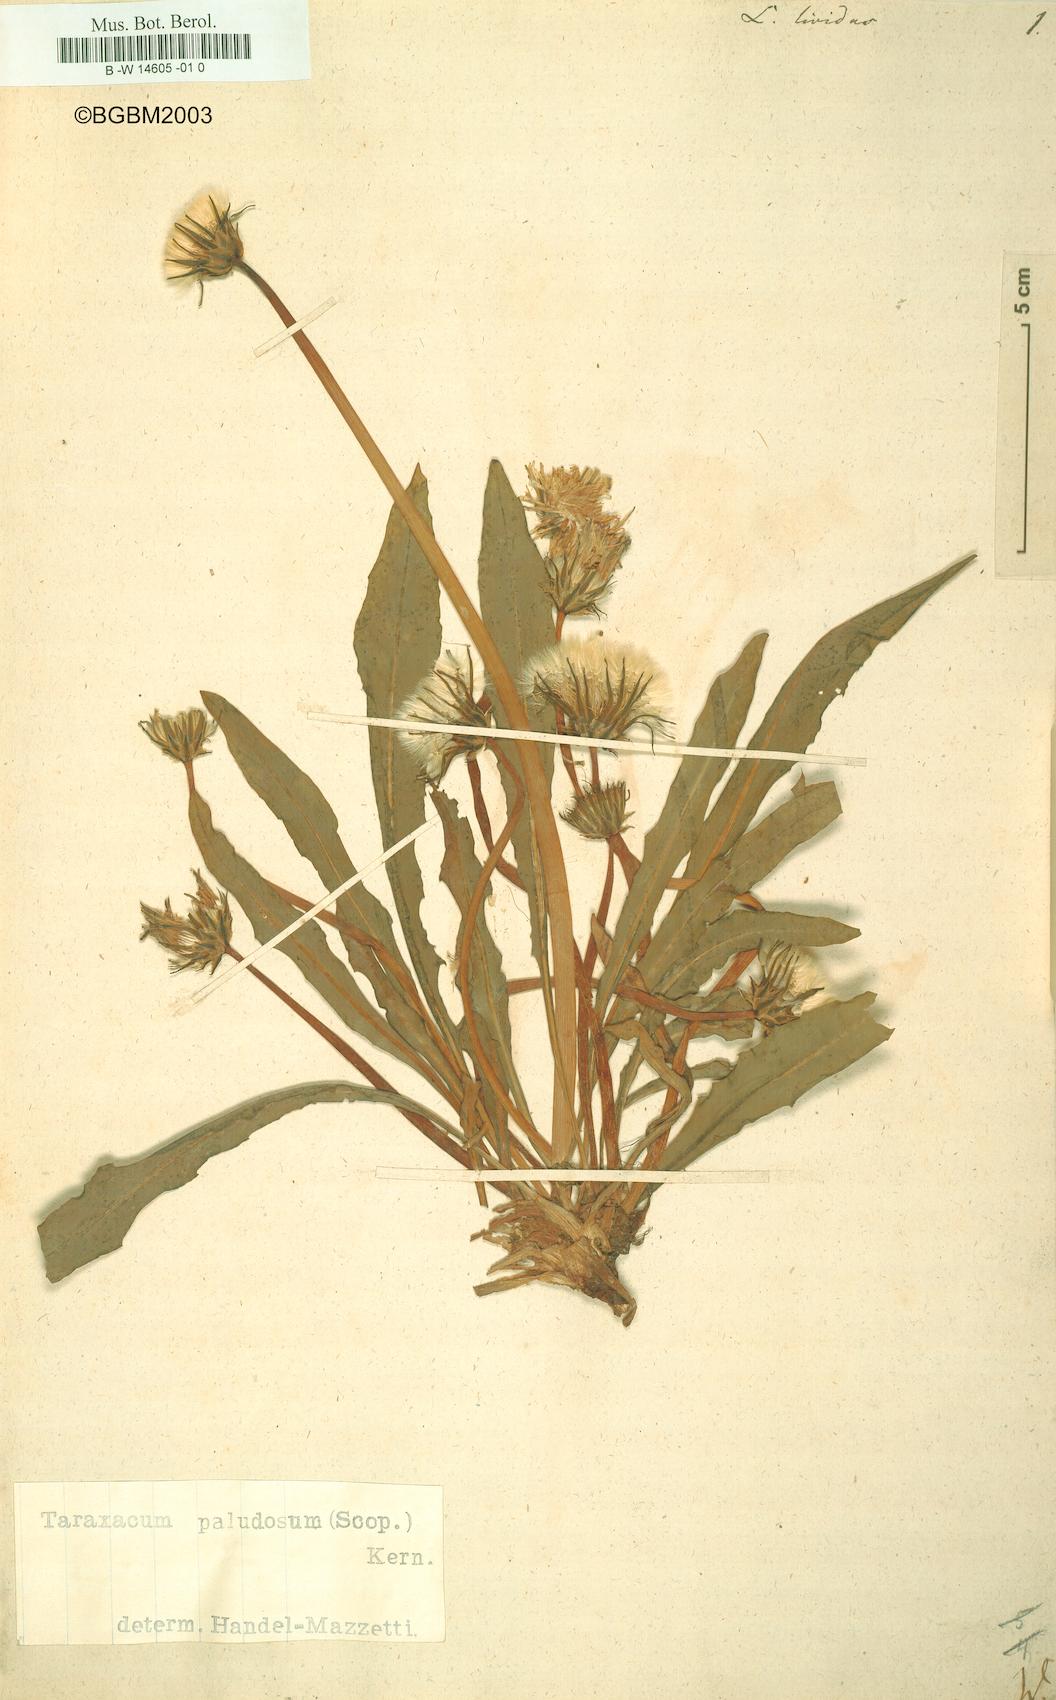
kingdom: Plantae
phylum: Tracheophyta
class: Magnoliopsida
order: Asterales
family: Asteraceae
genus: Taraxacum
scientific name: Taraxacum paludosum
